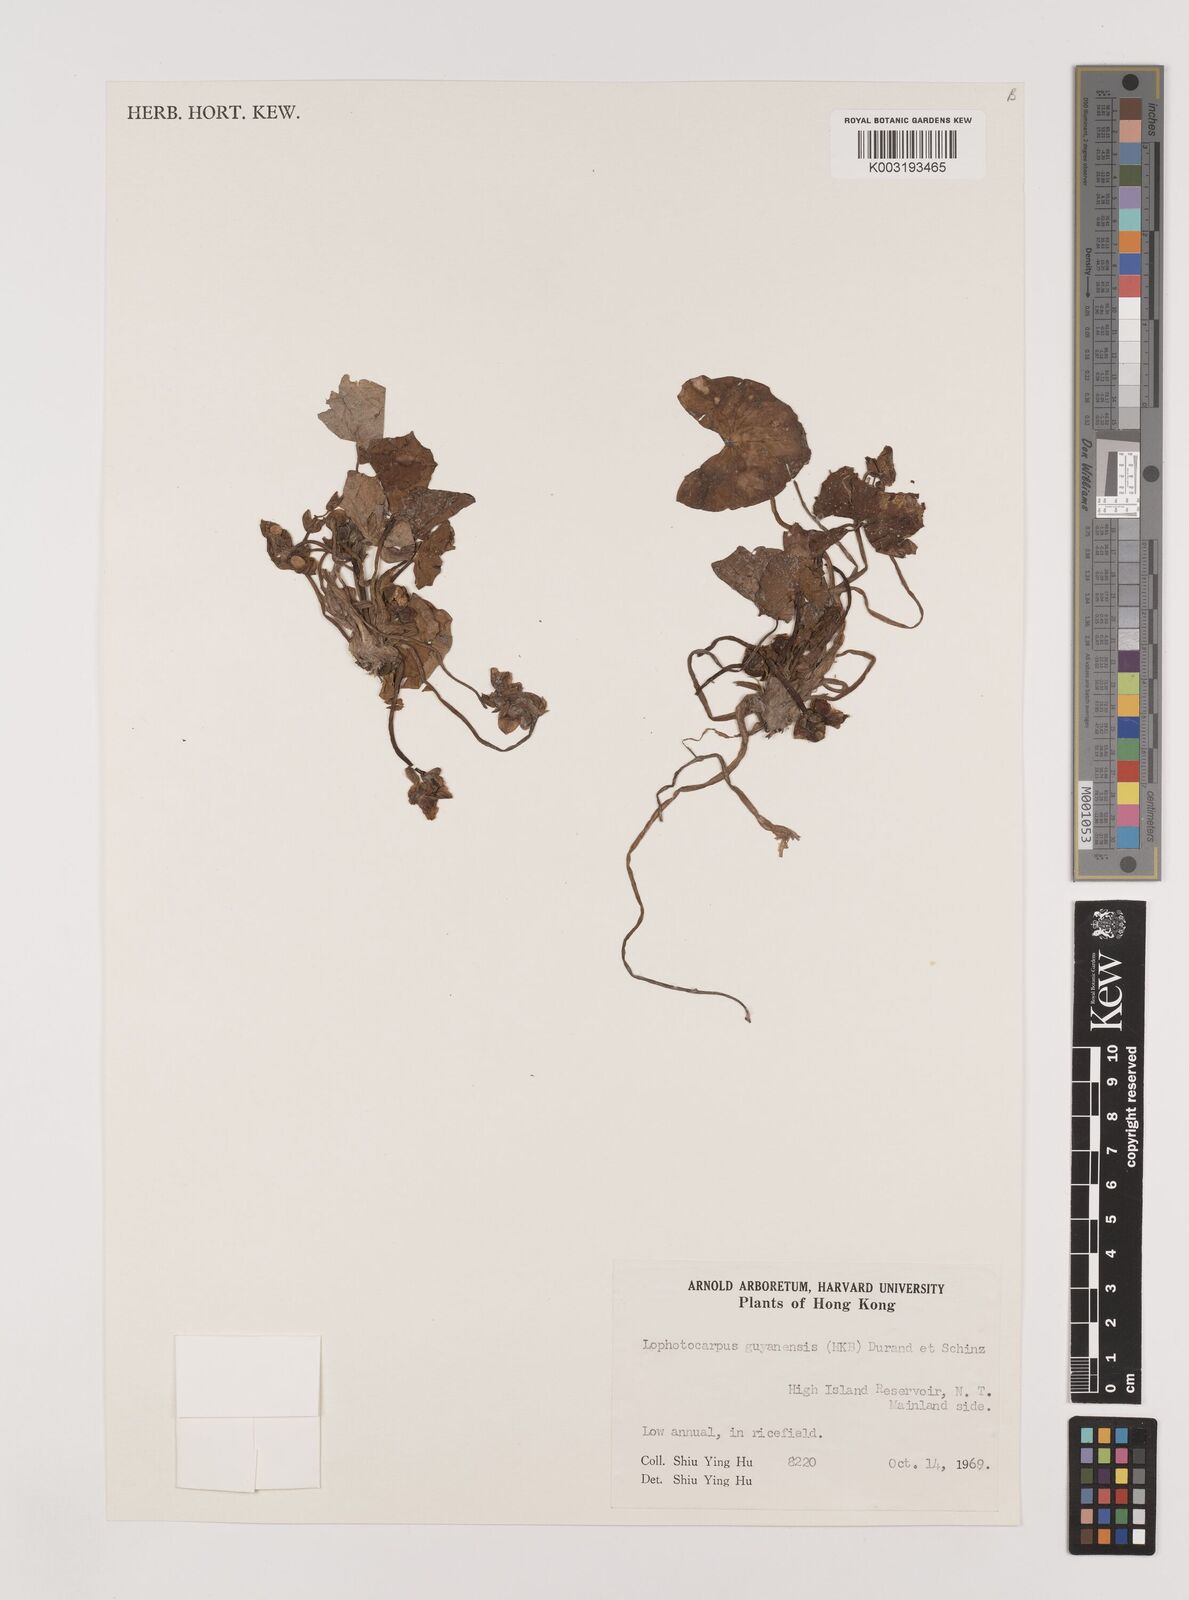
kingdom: Plantae
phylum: Tracheophyta
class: Liliopsida
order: Alismatales
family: Alismataceae
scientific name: Alismataceae
